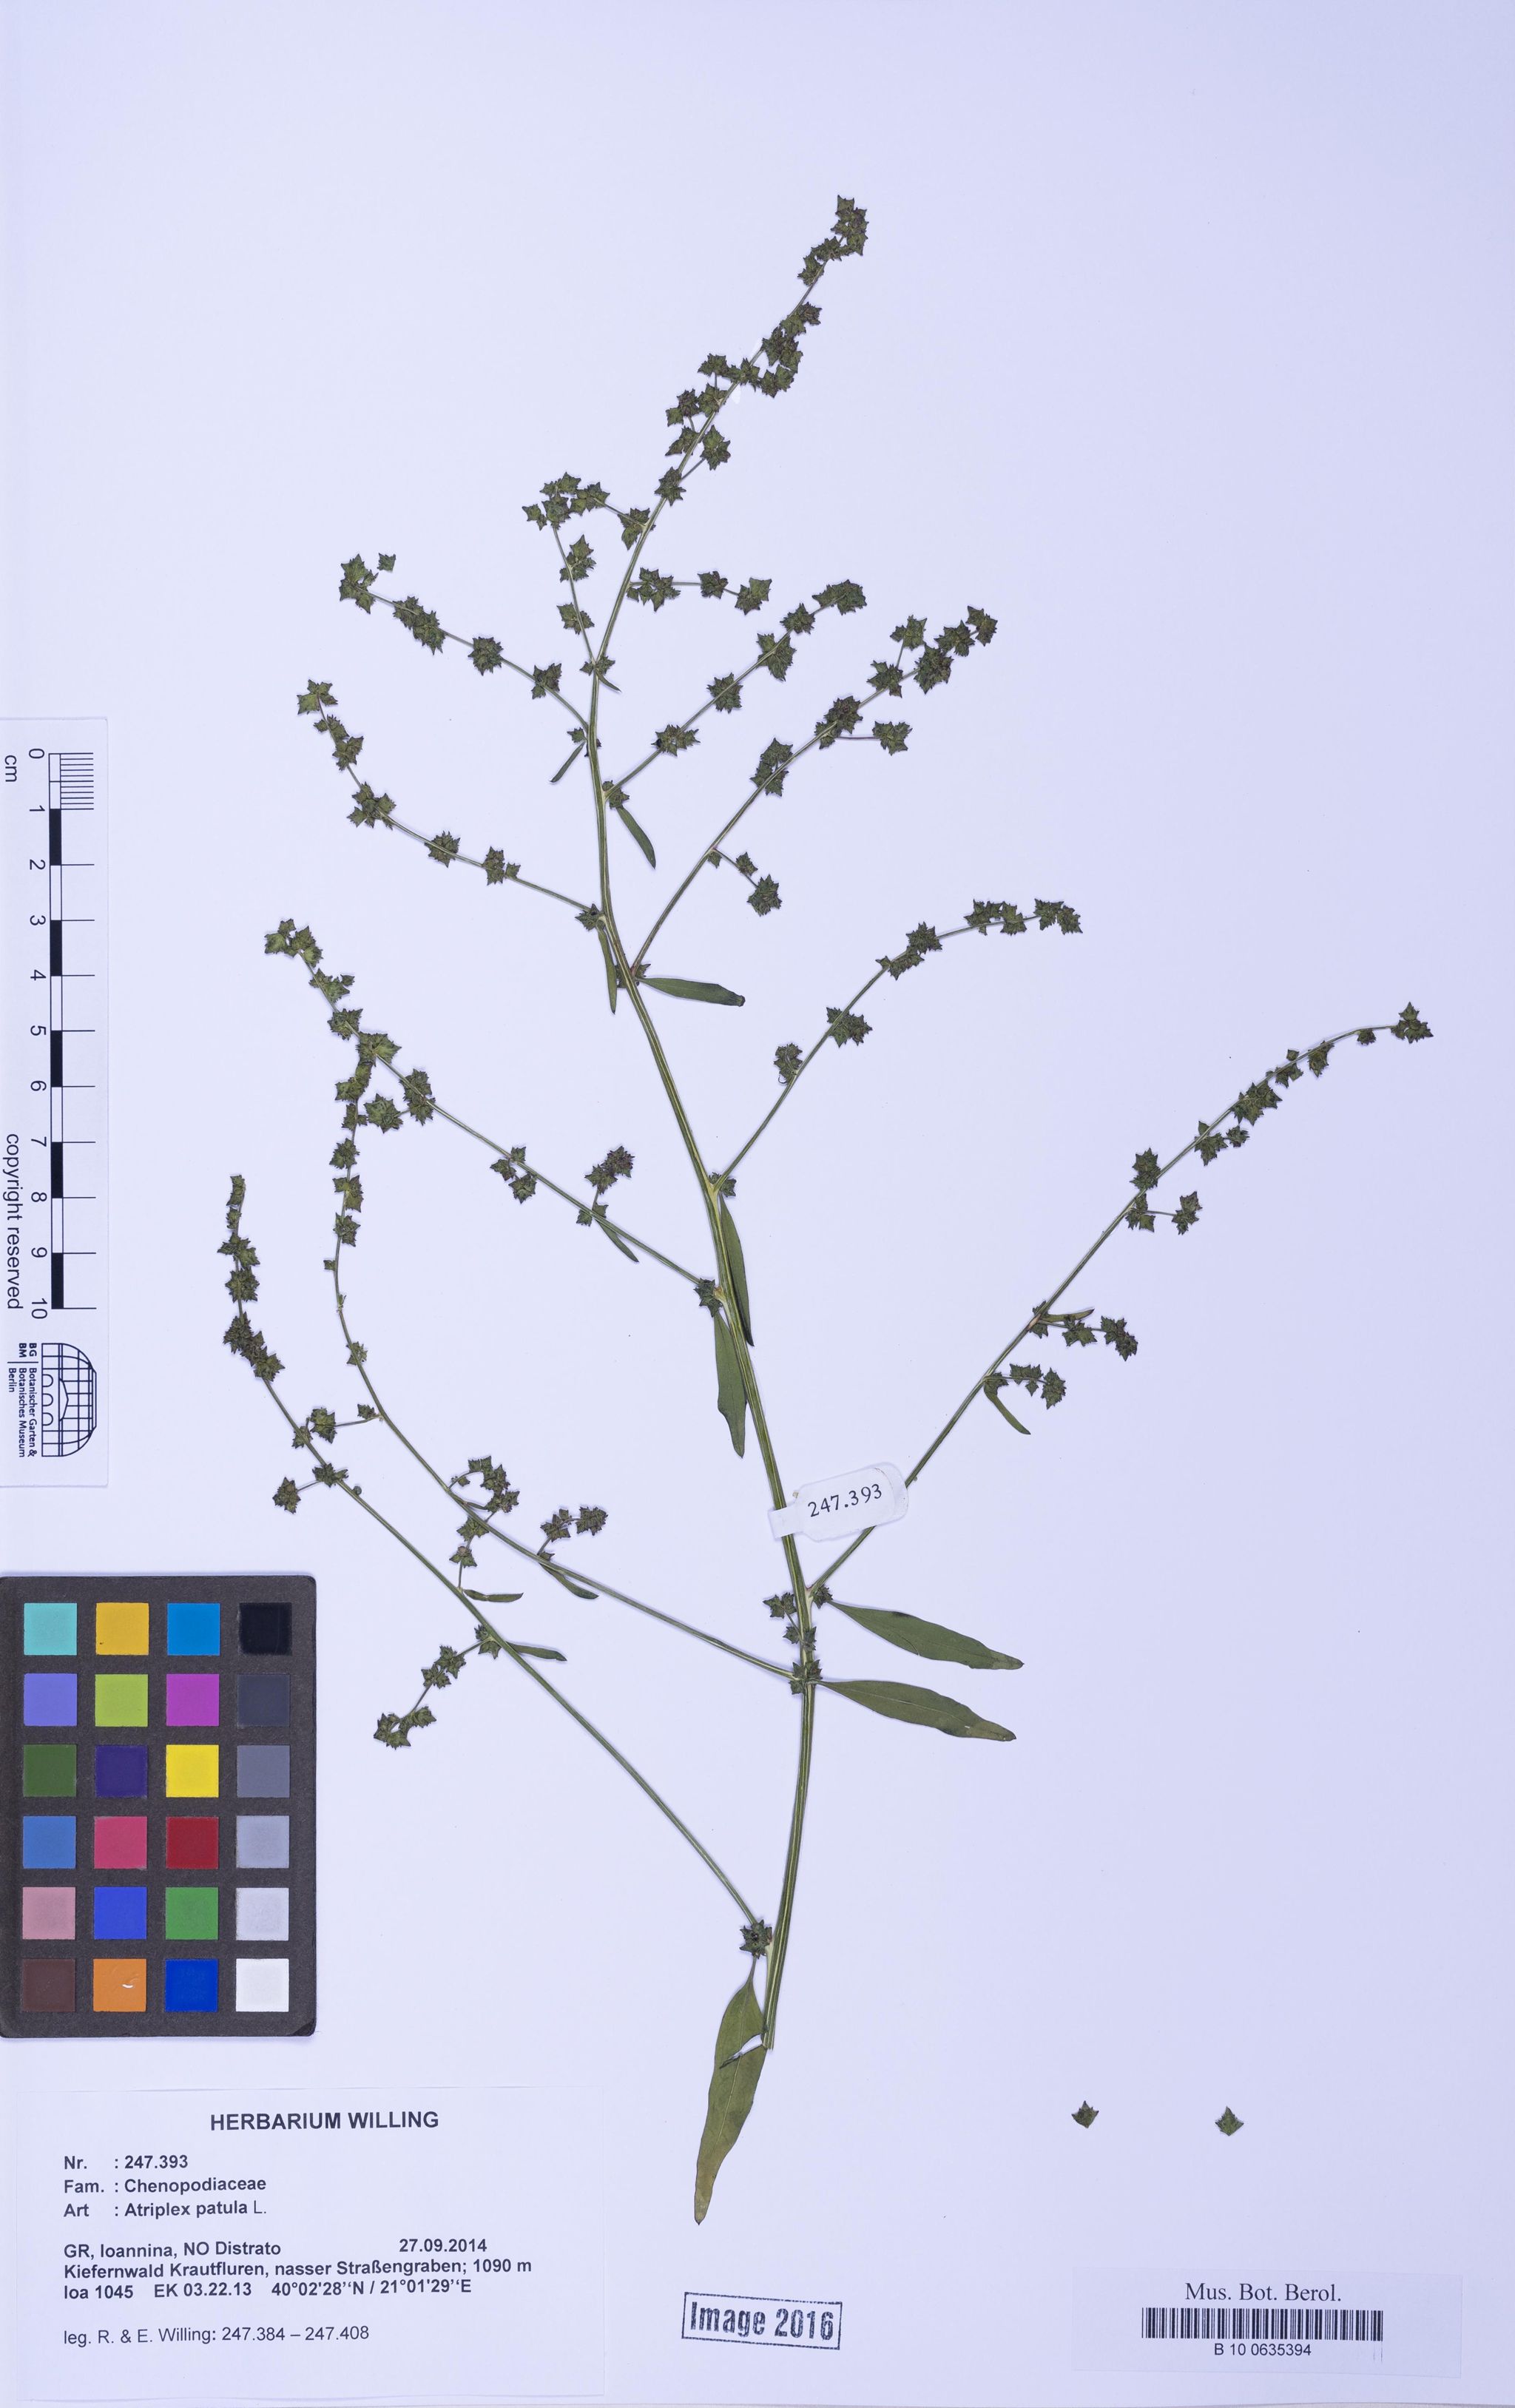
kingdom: Plantae
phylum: Tracheophyta
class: Magnoliopsida
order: Caryophyllales
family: Amaranthaceae
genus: Atriplex
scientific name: Atriplex patula
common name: Common orache
